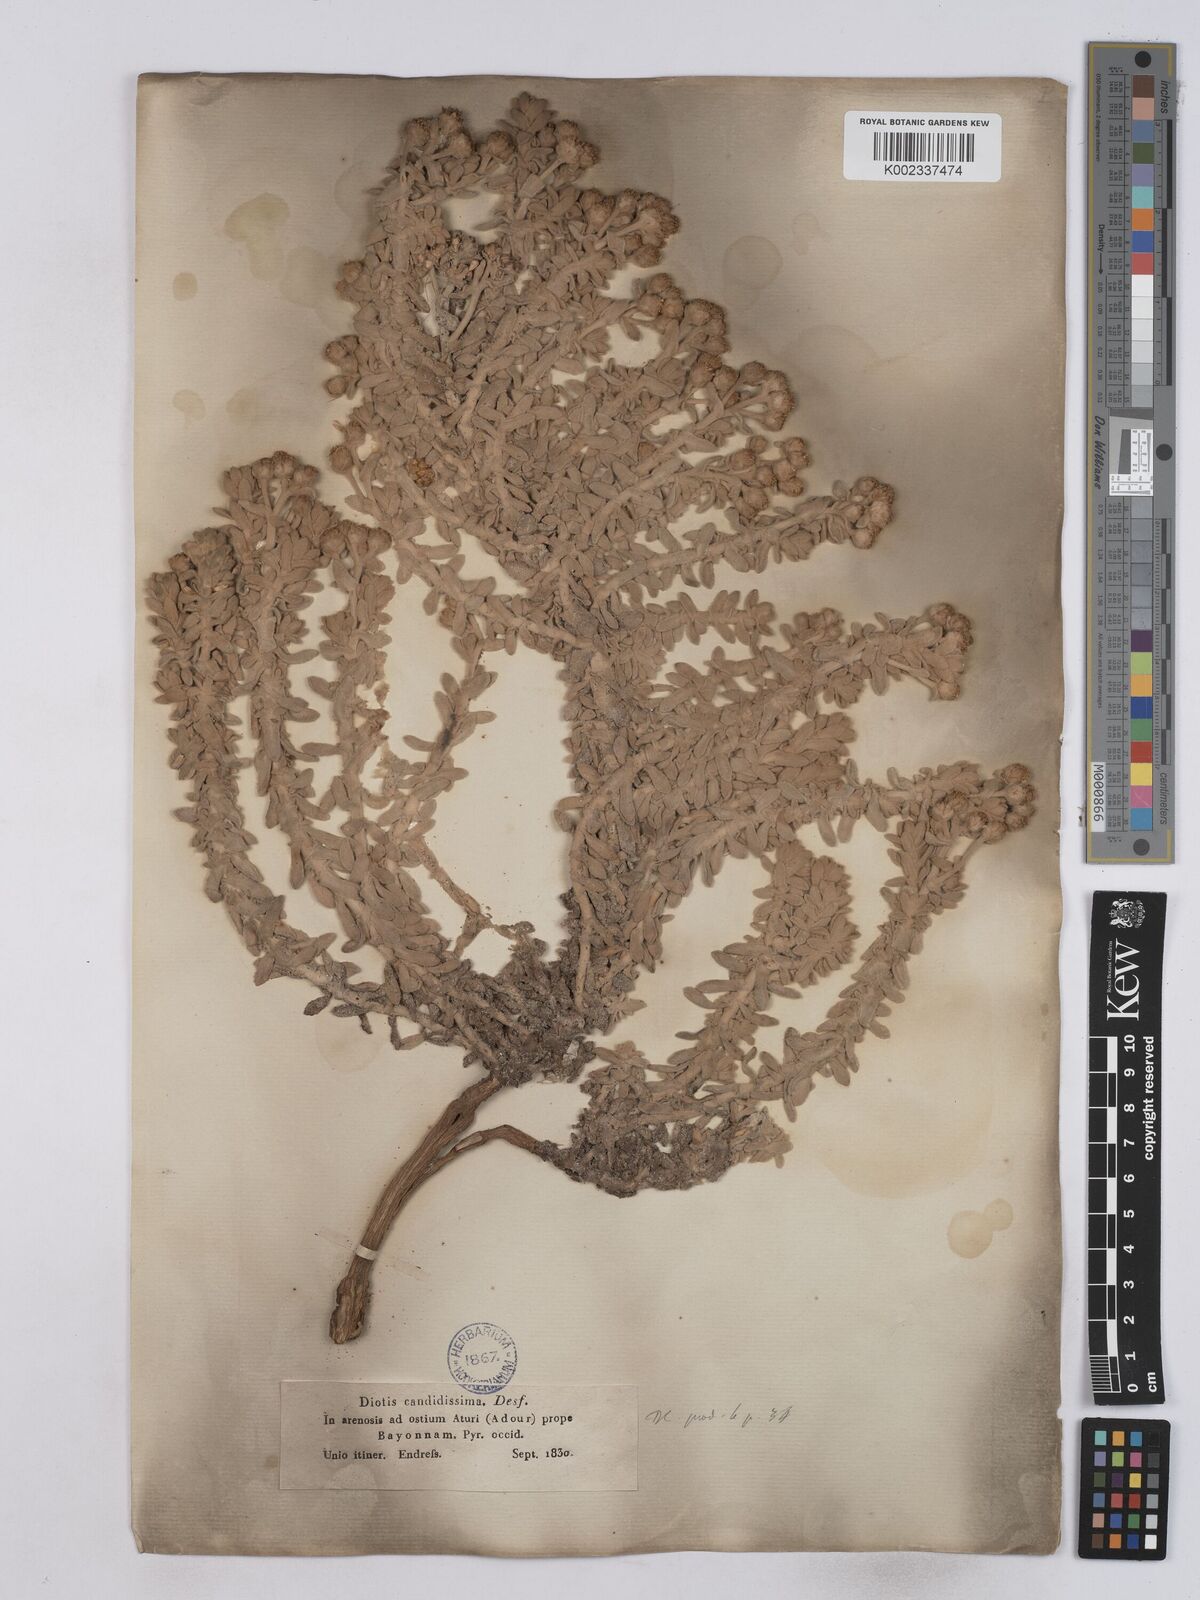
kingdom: Plantae
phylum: Tracheophyta
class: Magnoliopsida
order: Asterales
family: Asteraceae
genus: Achillea
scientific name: Achillea maritima
